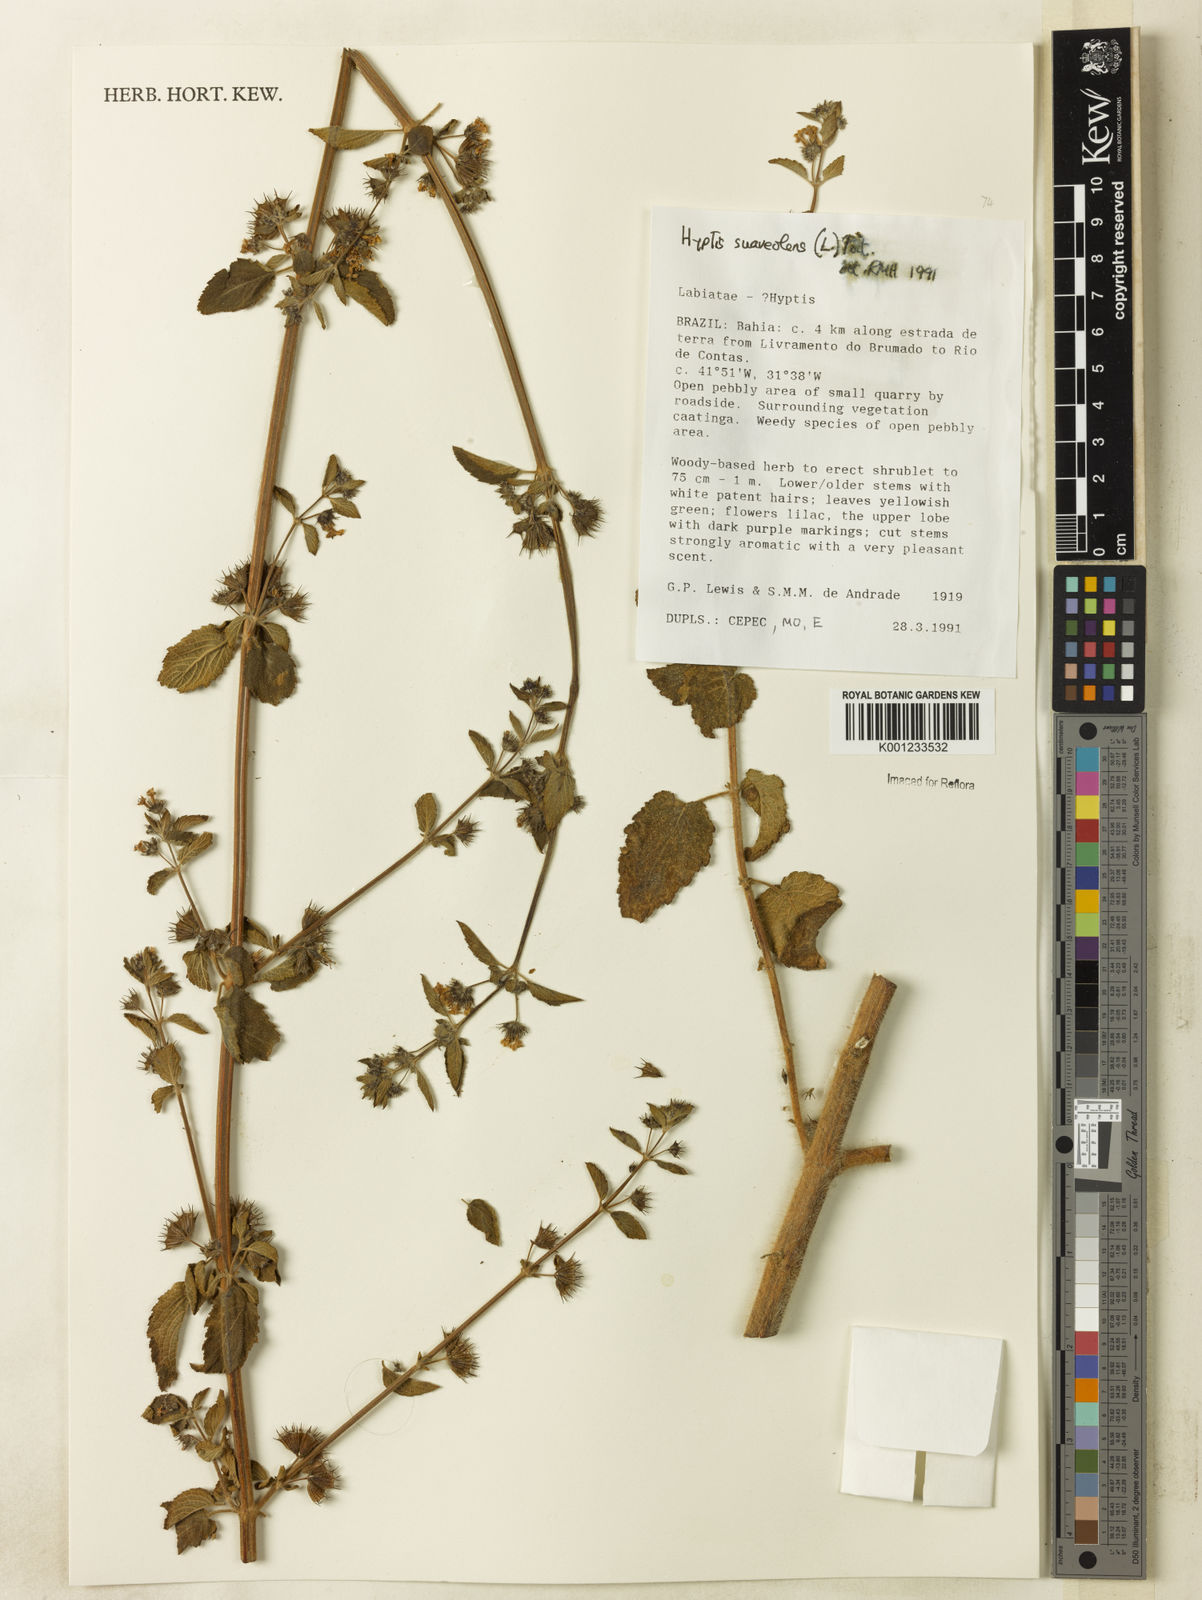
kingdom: Plantae
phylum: Tracheophyta
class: Magnoliopsida
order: Lamiales
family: Lamiaceae
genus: Mesosphaerum
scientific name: Mesosphaerum suaveolens
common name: Pignut
